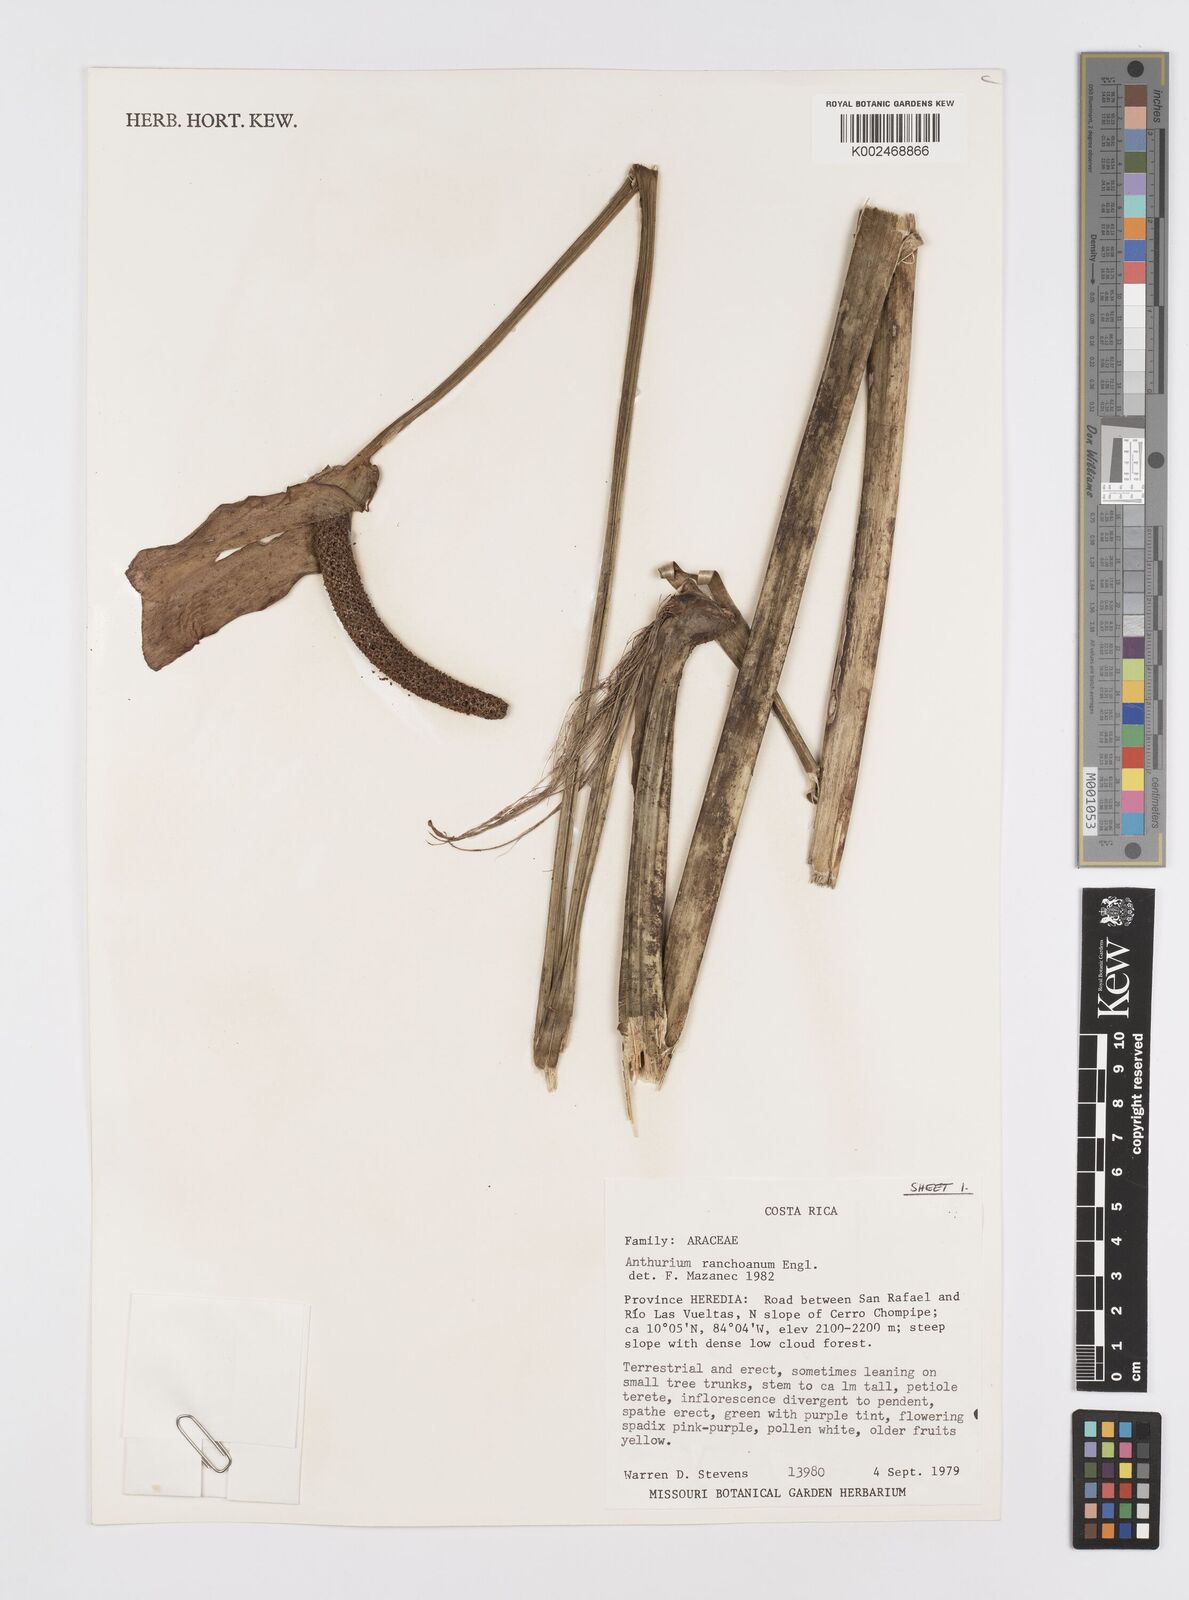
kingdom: Plantae
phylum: Tracheophyta
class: Liliopsida
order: Alismatales
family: Araceae
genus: Anthurium
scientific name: Anthurium ranchoanum
